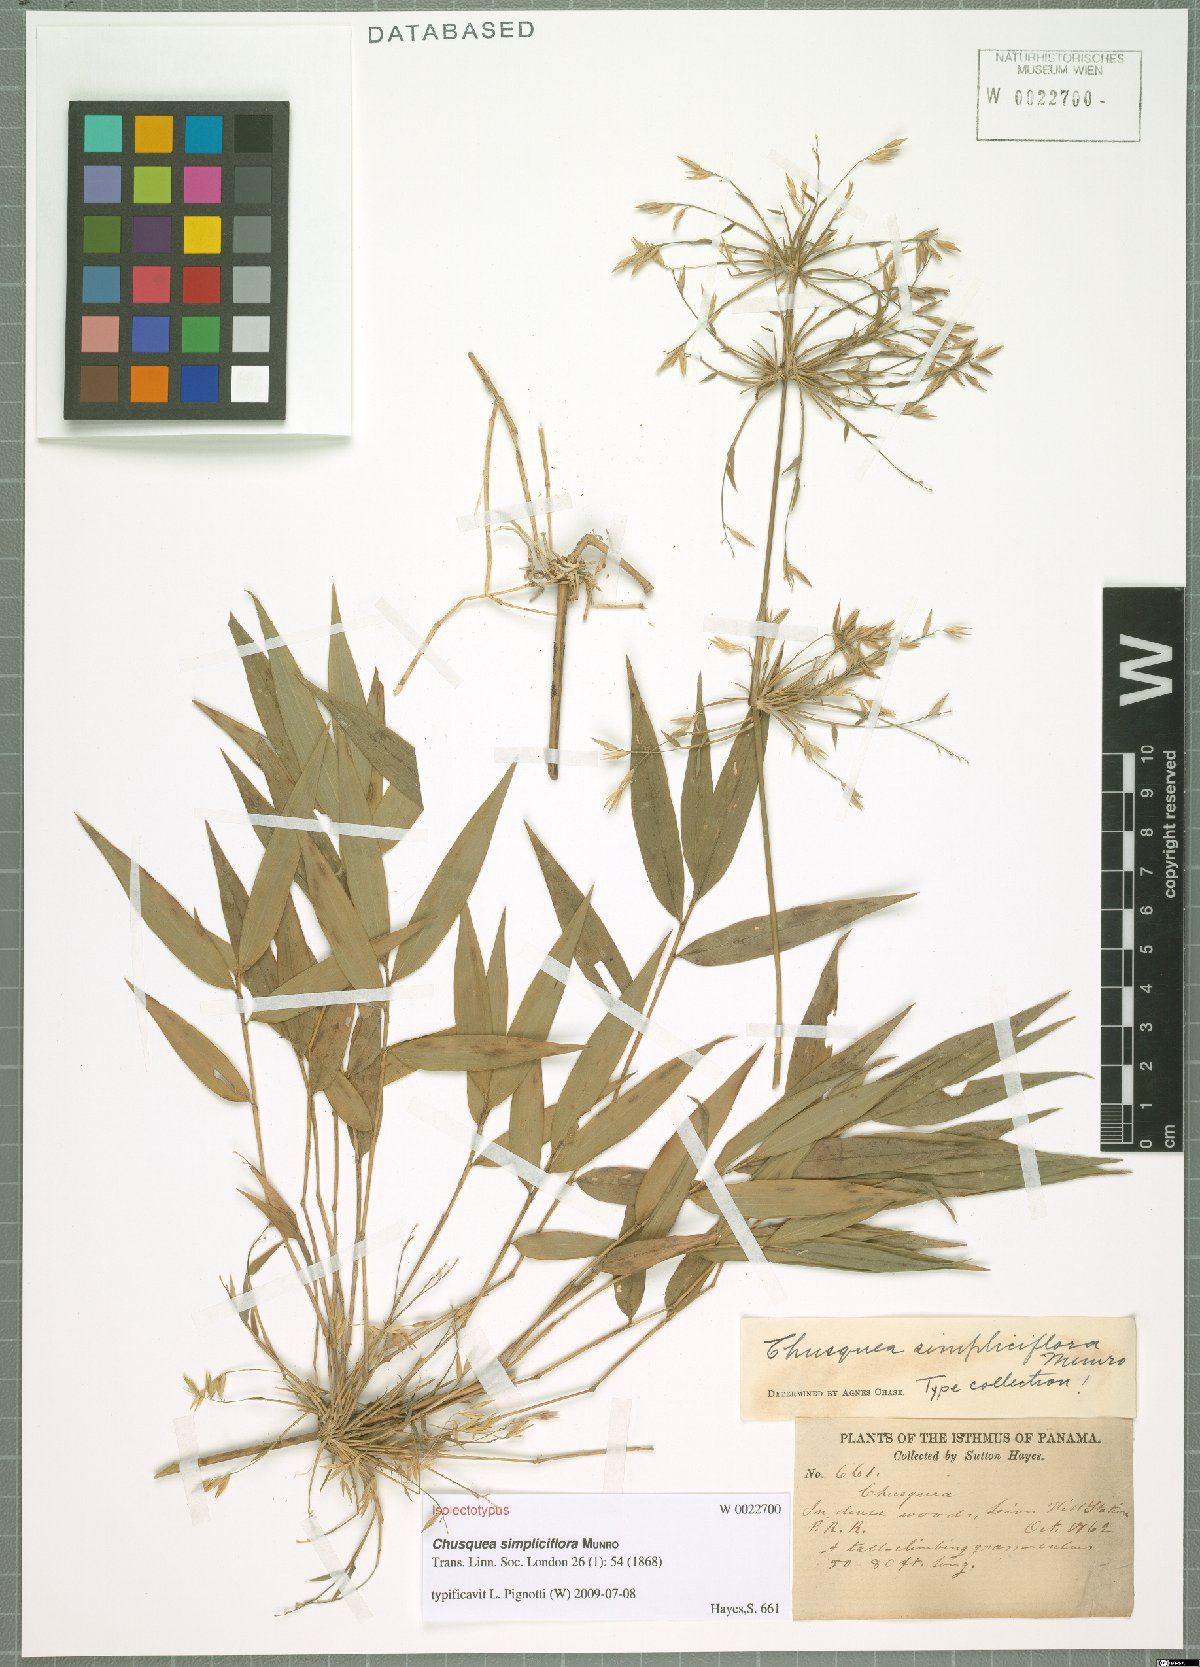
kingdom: Plantae
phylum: Tracheophyta
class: Liliopsida
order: Poales
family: Poaceae
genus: Chusquea
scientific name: Chusquea simpliciflora
